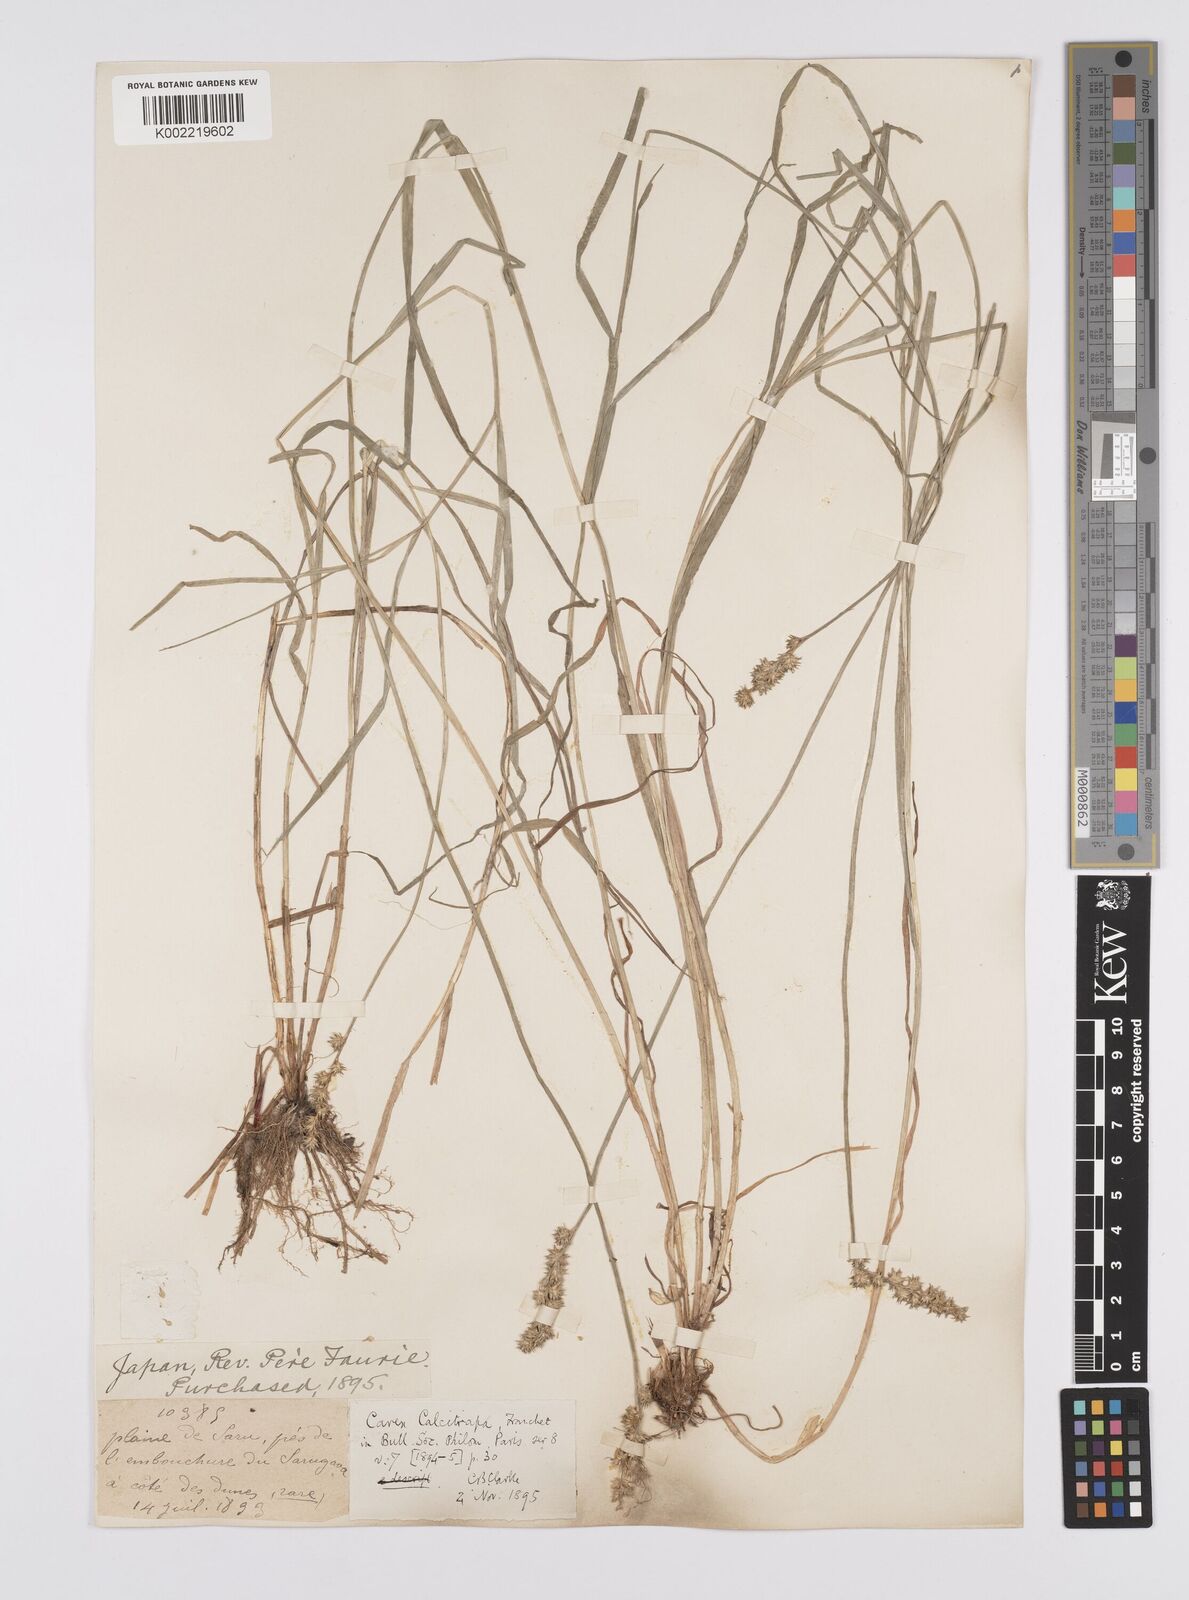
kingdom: Plantae
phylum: Tracheophyta
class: Liliopsida
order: Poales
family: Cyperaceae
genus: Carex
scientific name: Carex maackii
